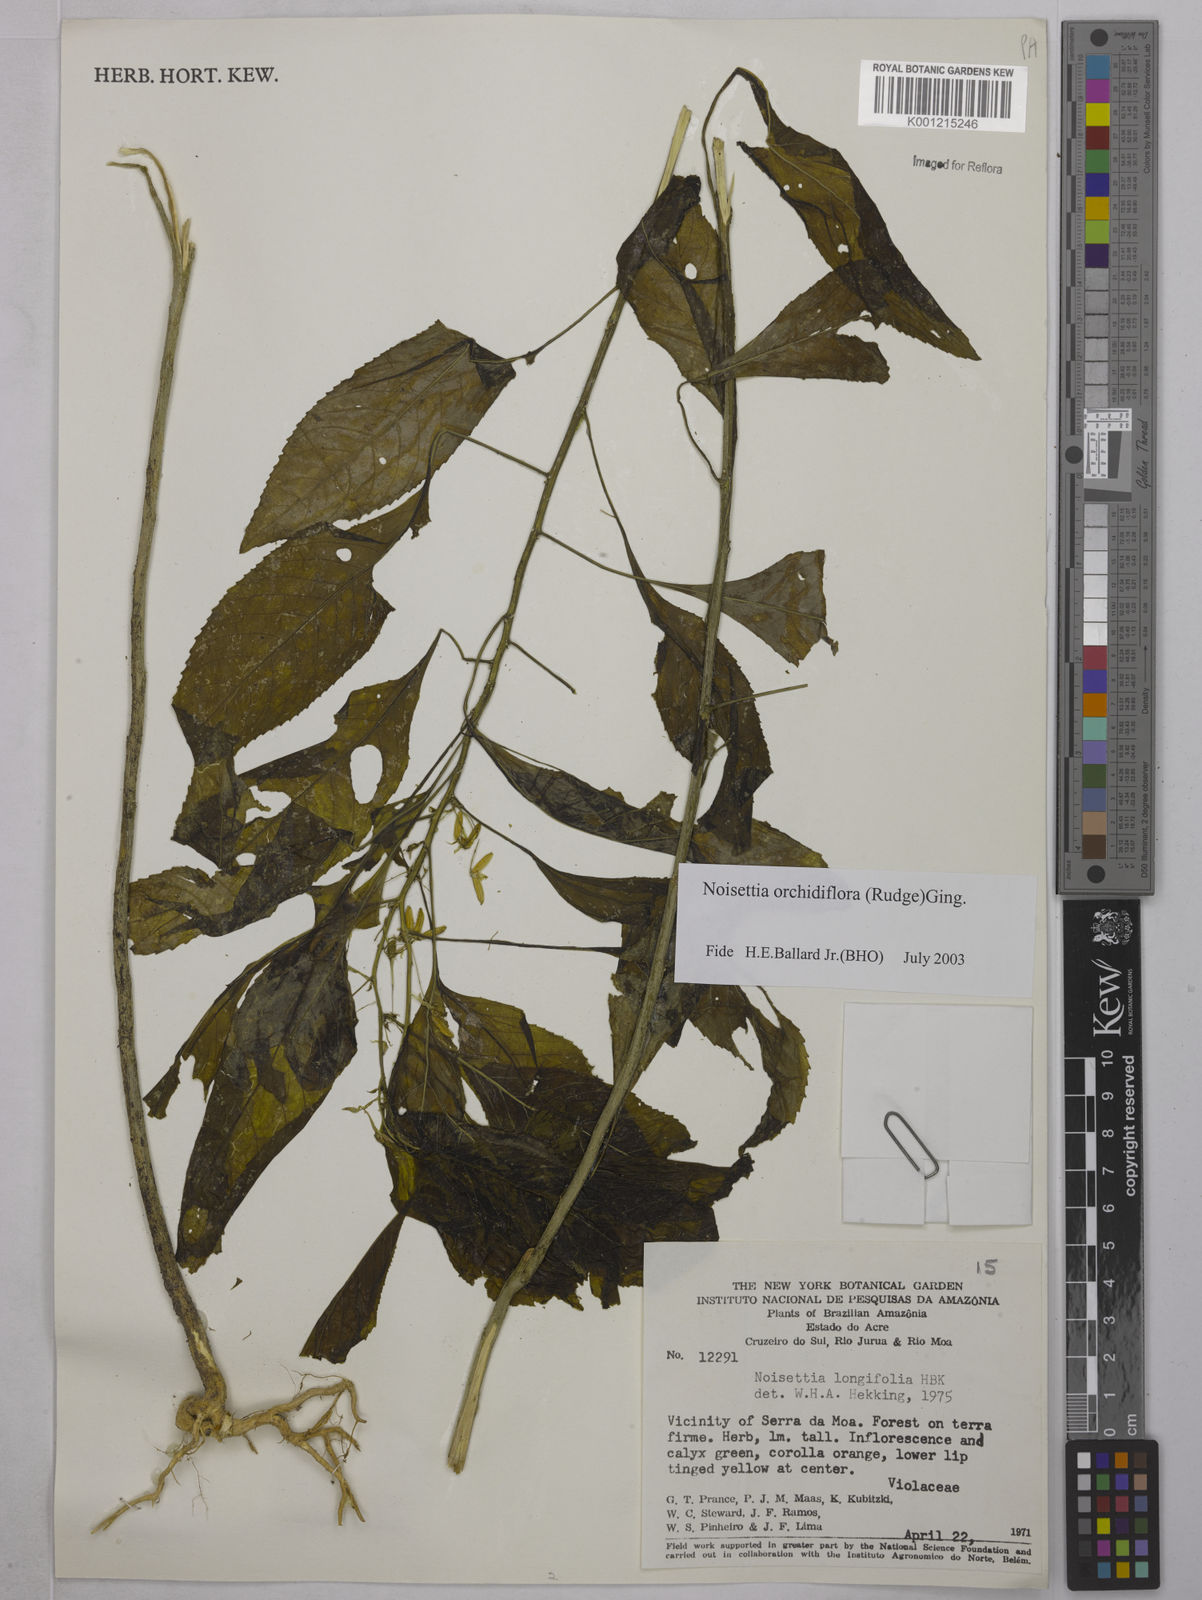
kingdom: Plantae
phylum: Tracheophyta
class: Magnoliopsida
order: Malpighiales
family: Violaceae
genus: Noisettia
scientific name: Noisettia orchidiflora
